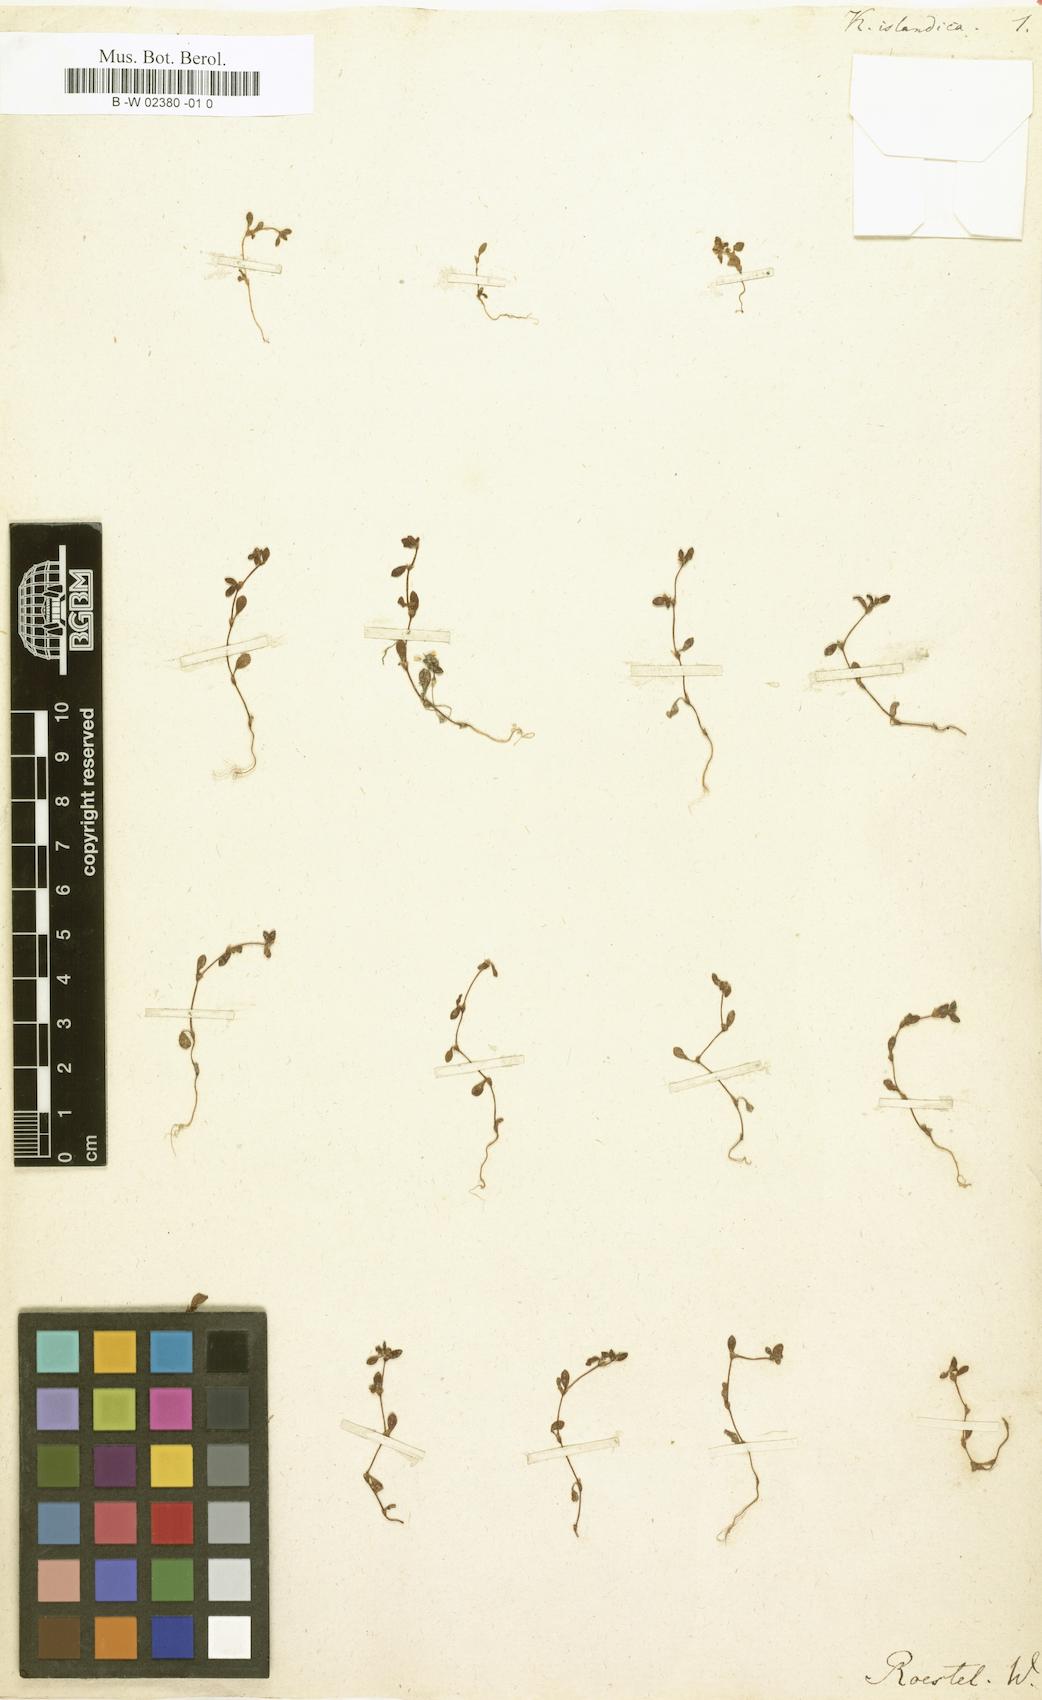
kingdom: Plantae
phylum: Tracheophyta
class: Magnoliopsida
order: Caryophyllales
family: Polygonaceae
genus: Koenigia
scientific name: Koenigia islandica
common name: Iceland-purslane
